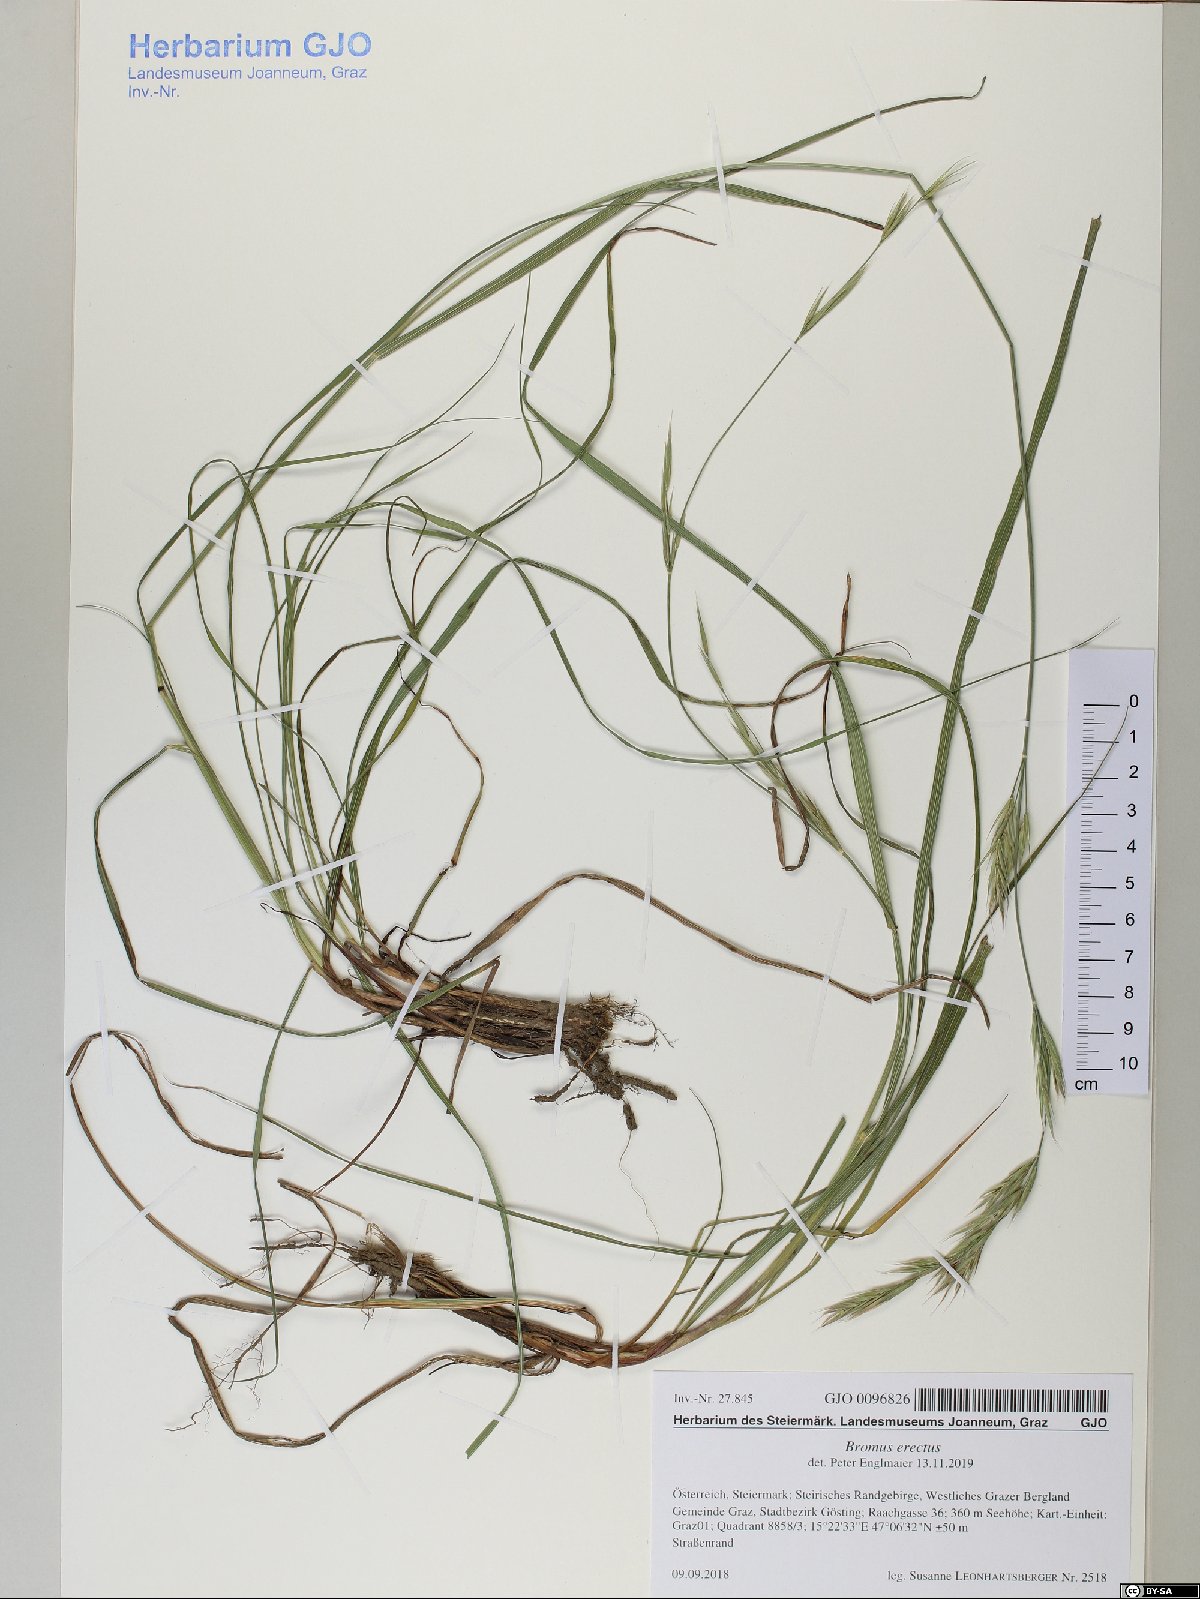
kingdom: Plantae
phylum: Tracheophyta
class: Liliopsida
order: Poales
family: Poaceae
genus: Bromus
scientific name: Bromus erectus
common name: Erect brome
